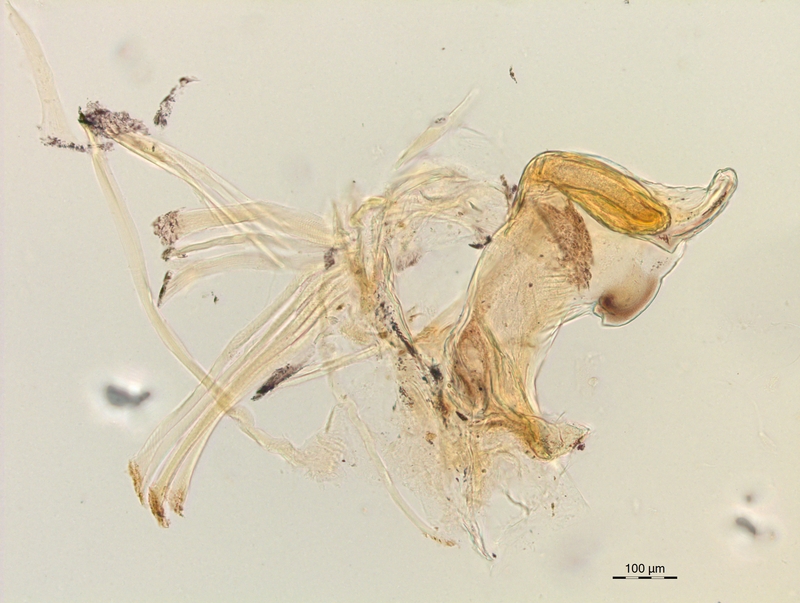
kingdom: Animalia
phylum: Arthropoda
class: Diplopoda
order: Chordeumatida
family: Craspedosomatidae
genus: Craspedosoma
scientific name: Craspedosoma rawlinsii
